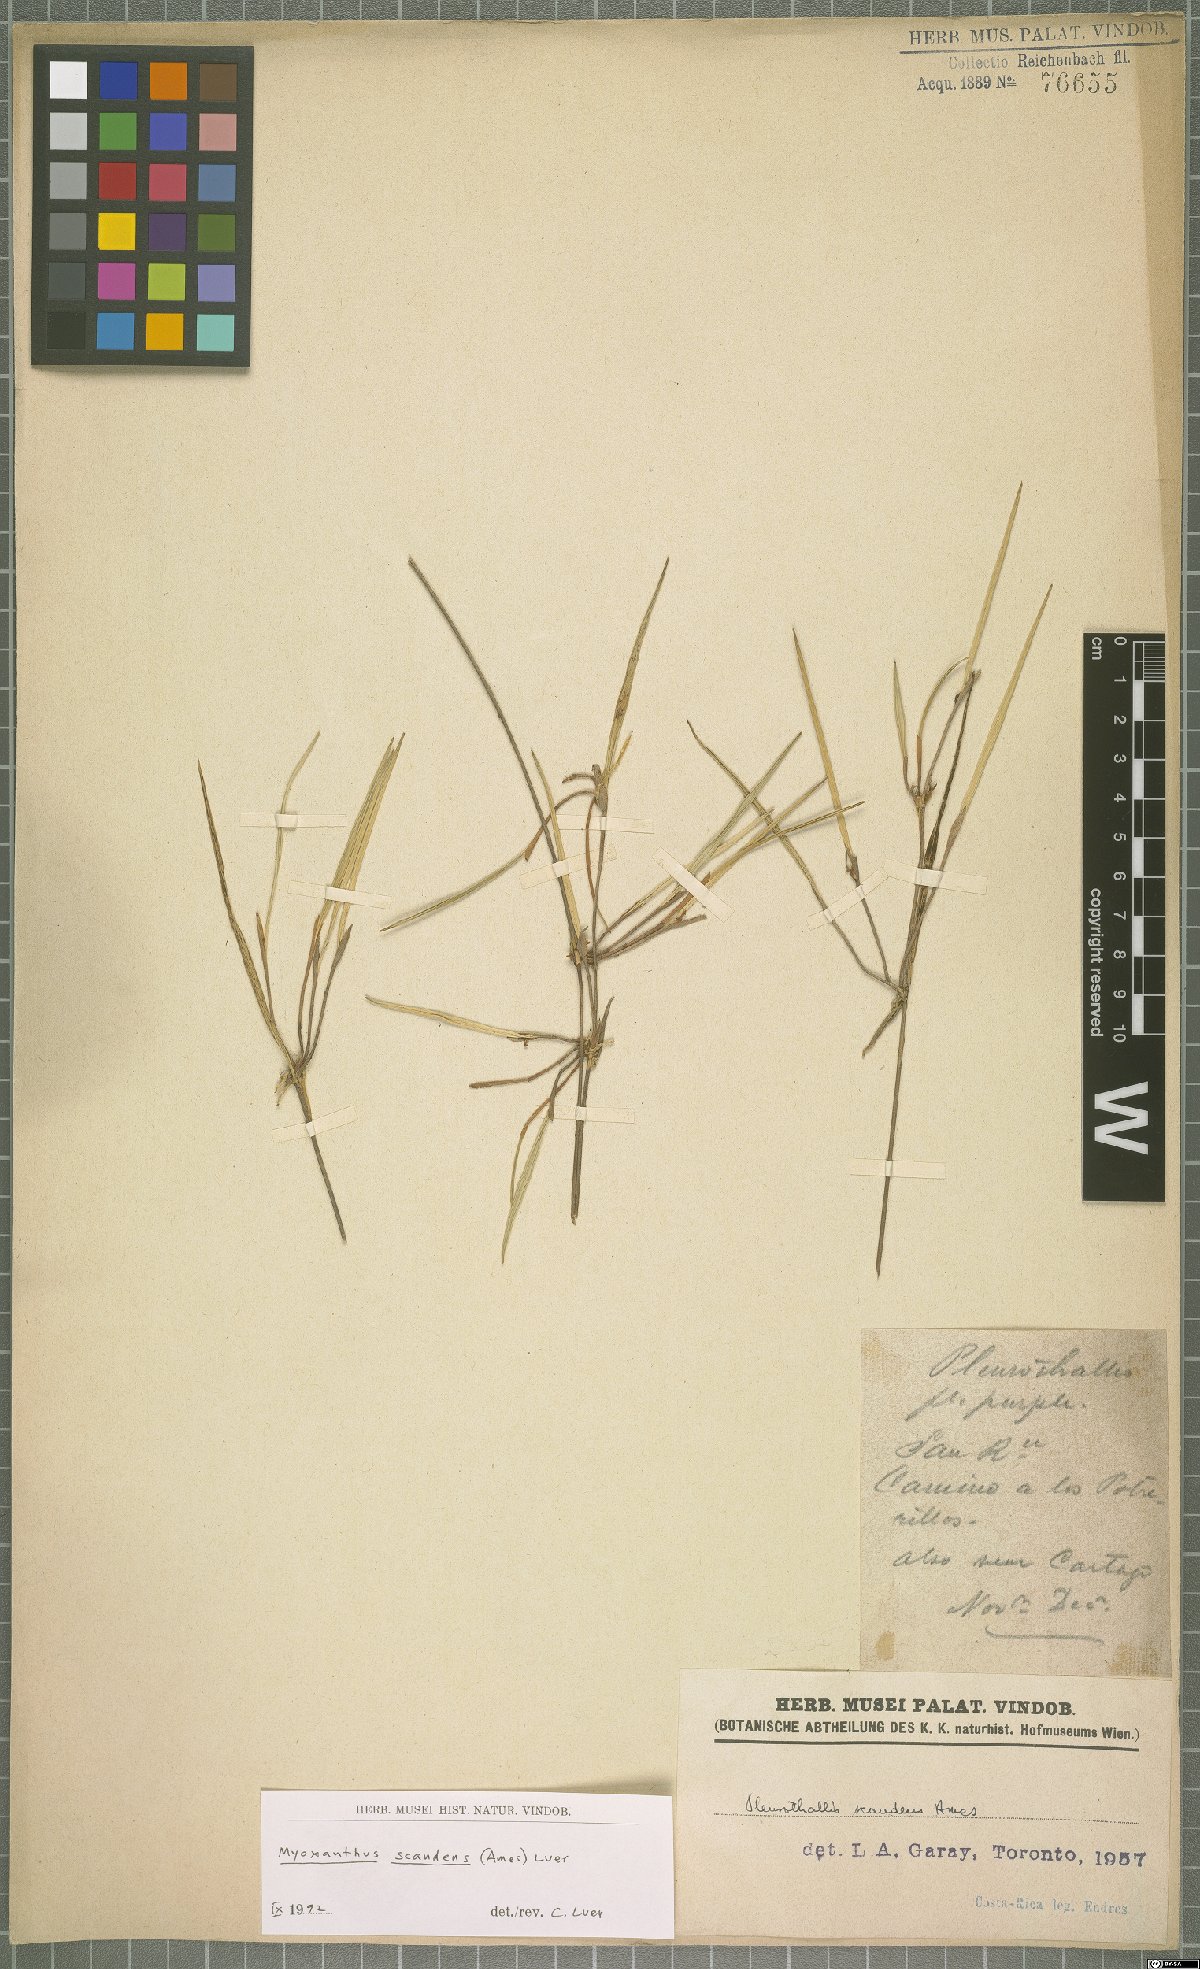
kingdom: Plantae
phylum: Tracheophyta
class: Liliopsida
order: Asparagales
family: Orchidaceae
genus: Myoxanthus
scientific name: Myoxanthus scandens
